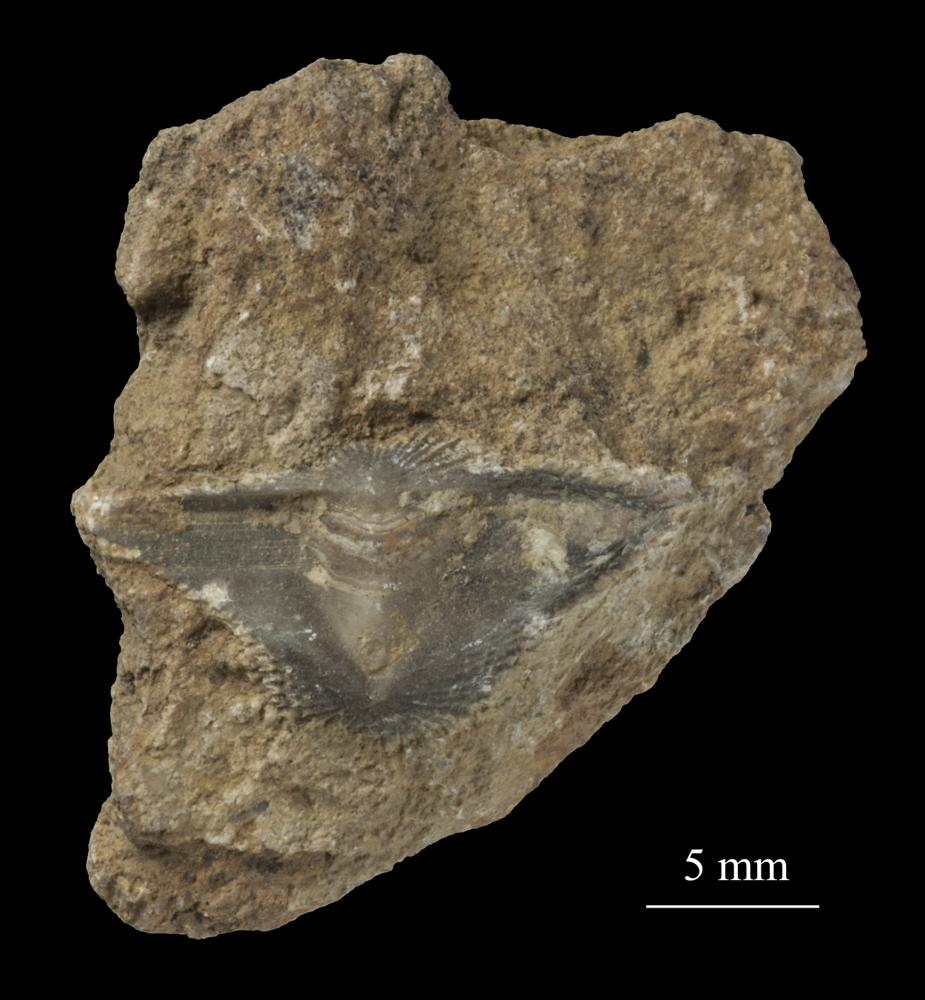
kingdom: Animalia
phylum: Brachiopoda
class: Rhynchonellata
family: Clitambonitidae
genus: Clitambonites
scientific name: Clitambonites squamatus
